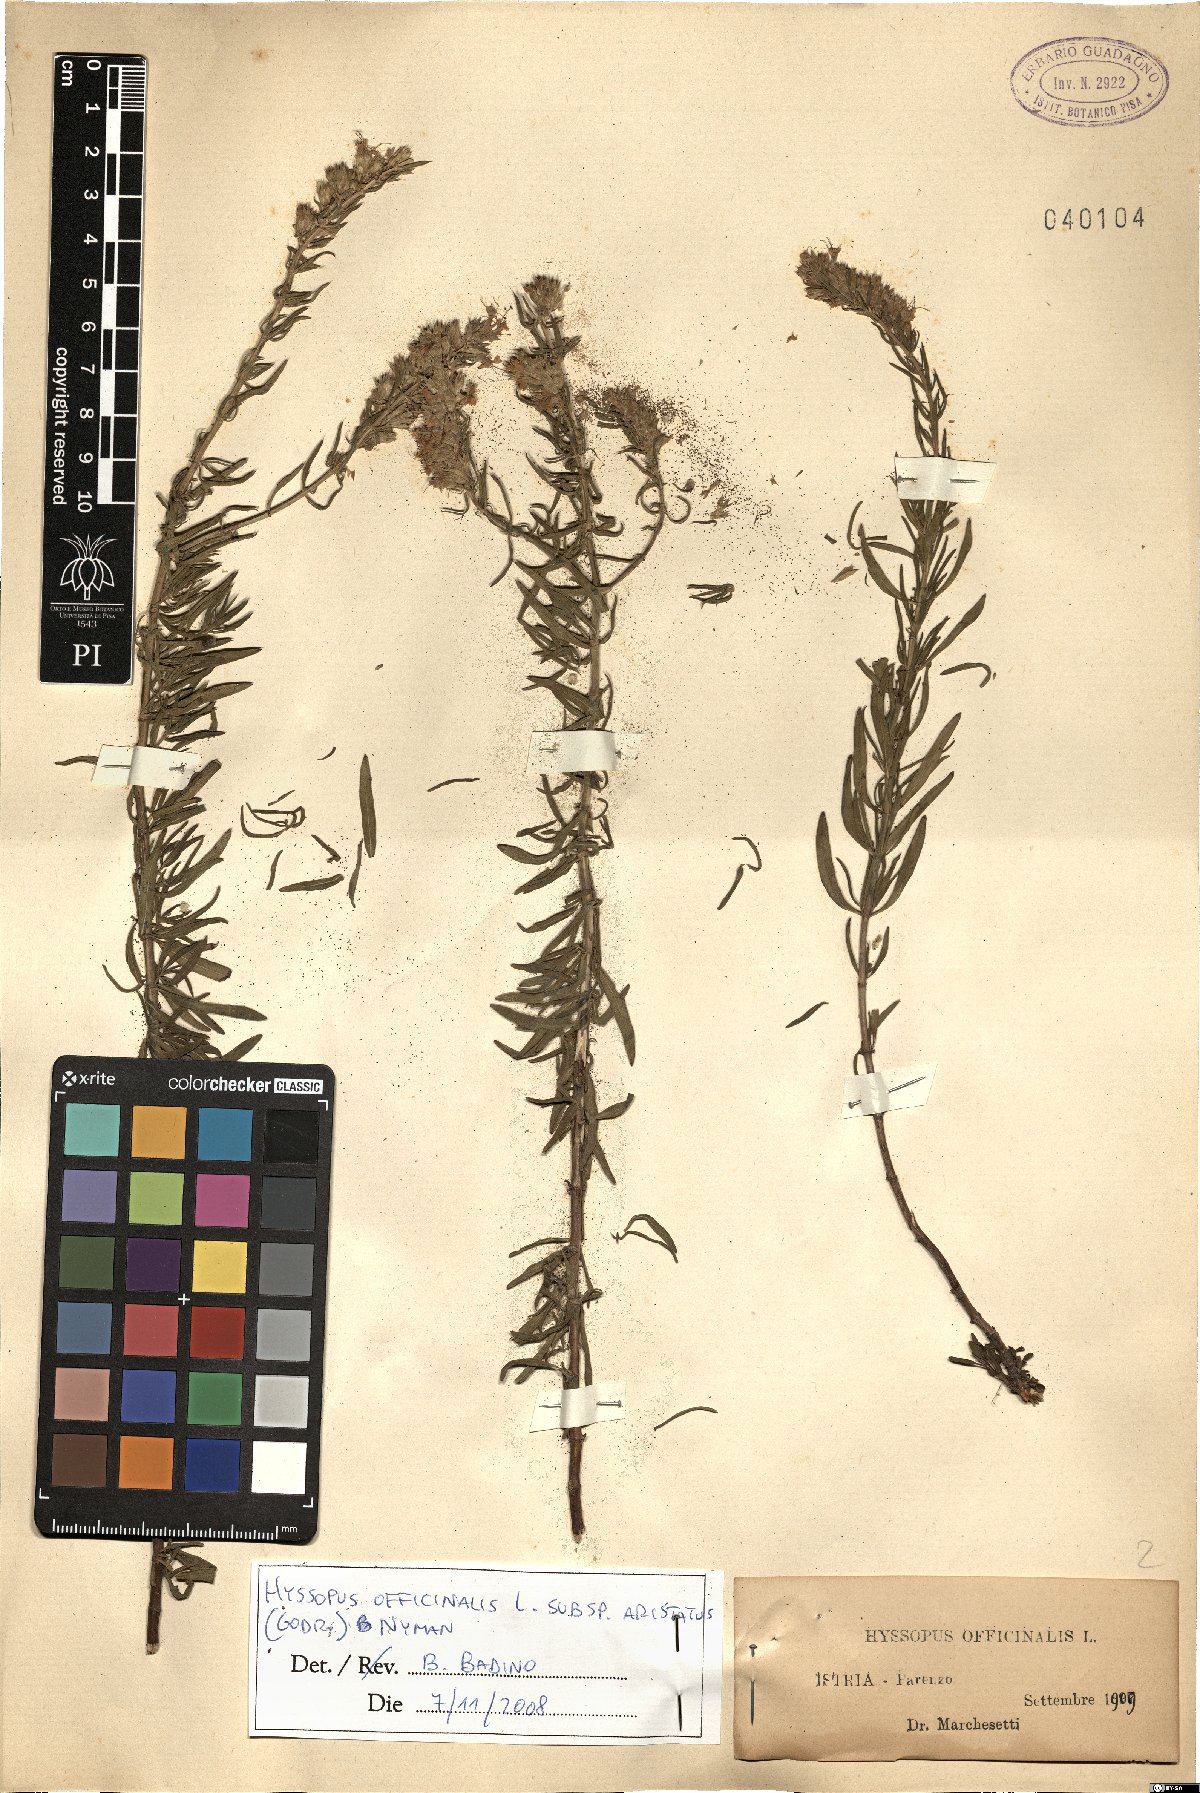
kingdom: Plantae
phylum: Tracheophyta
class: Magnoliopsida
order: Lamiales
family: Lamiaceae
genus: Hyssopus
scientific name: Hyssopus officinalis
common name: Hyssop
